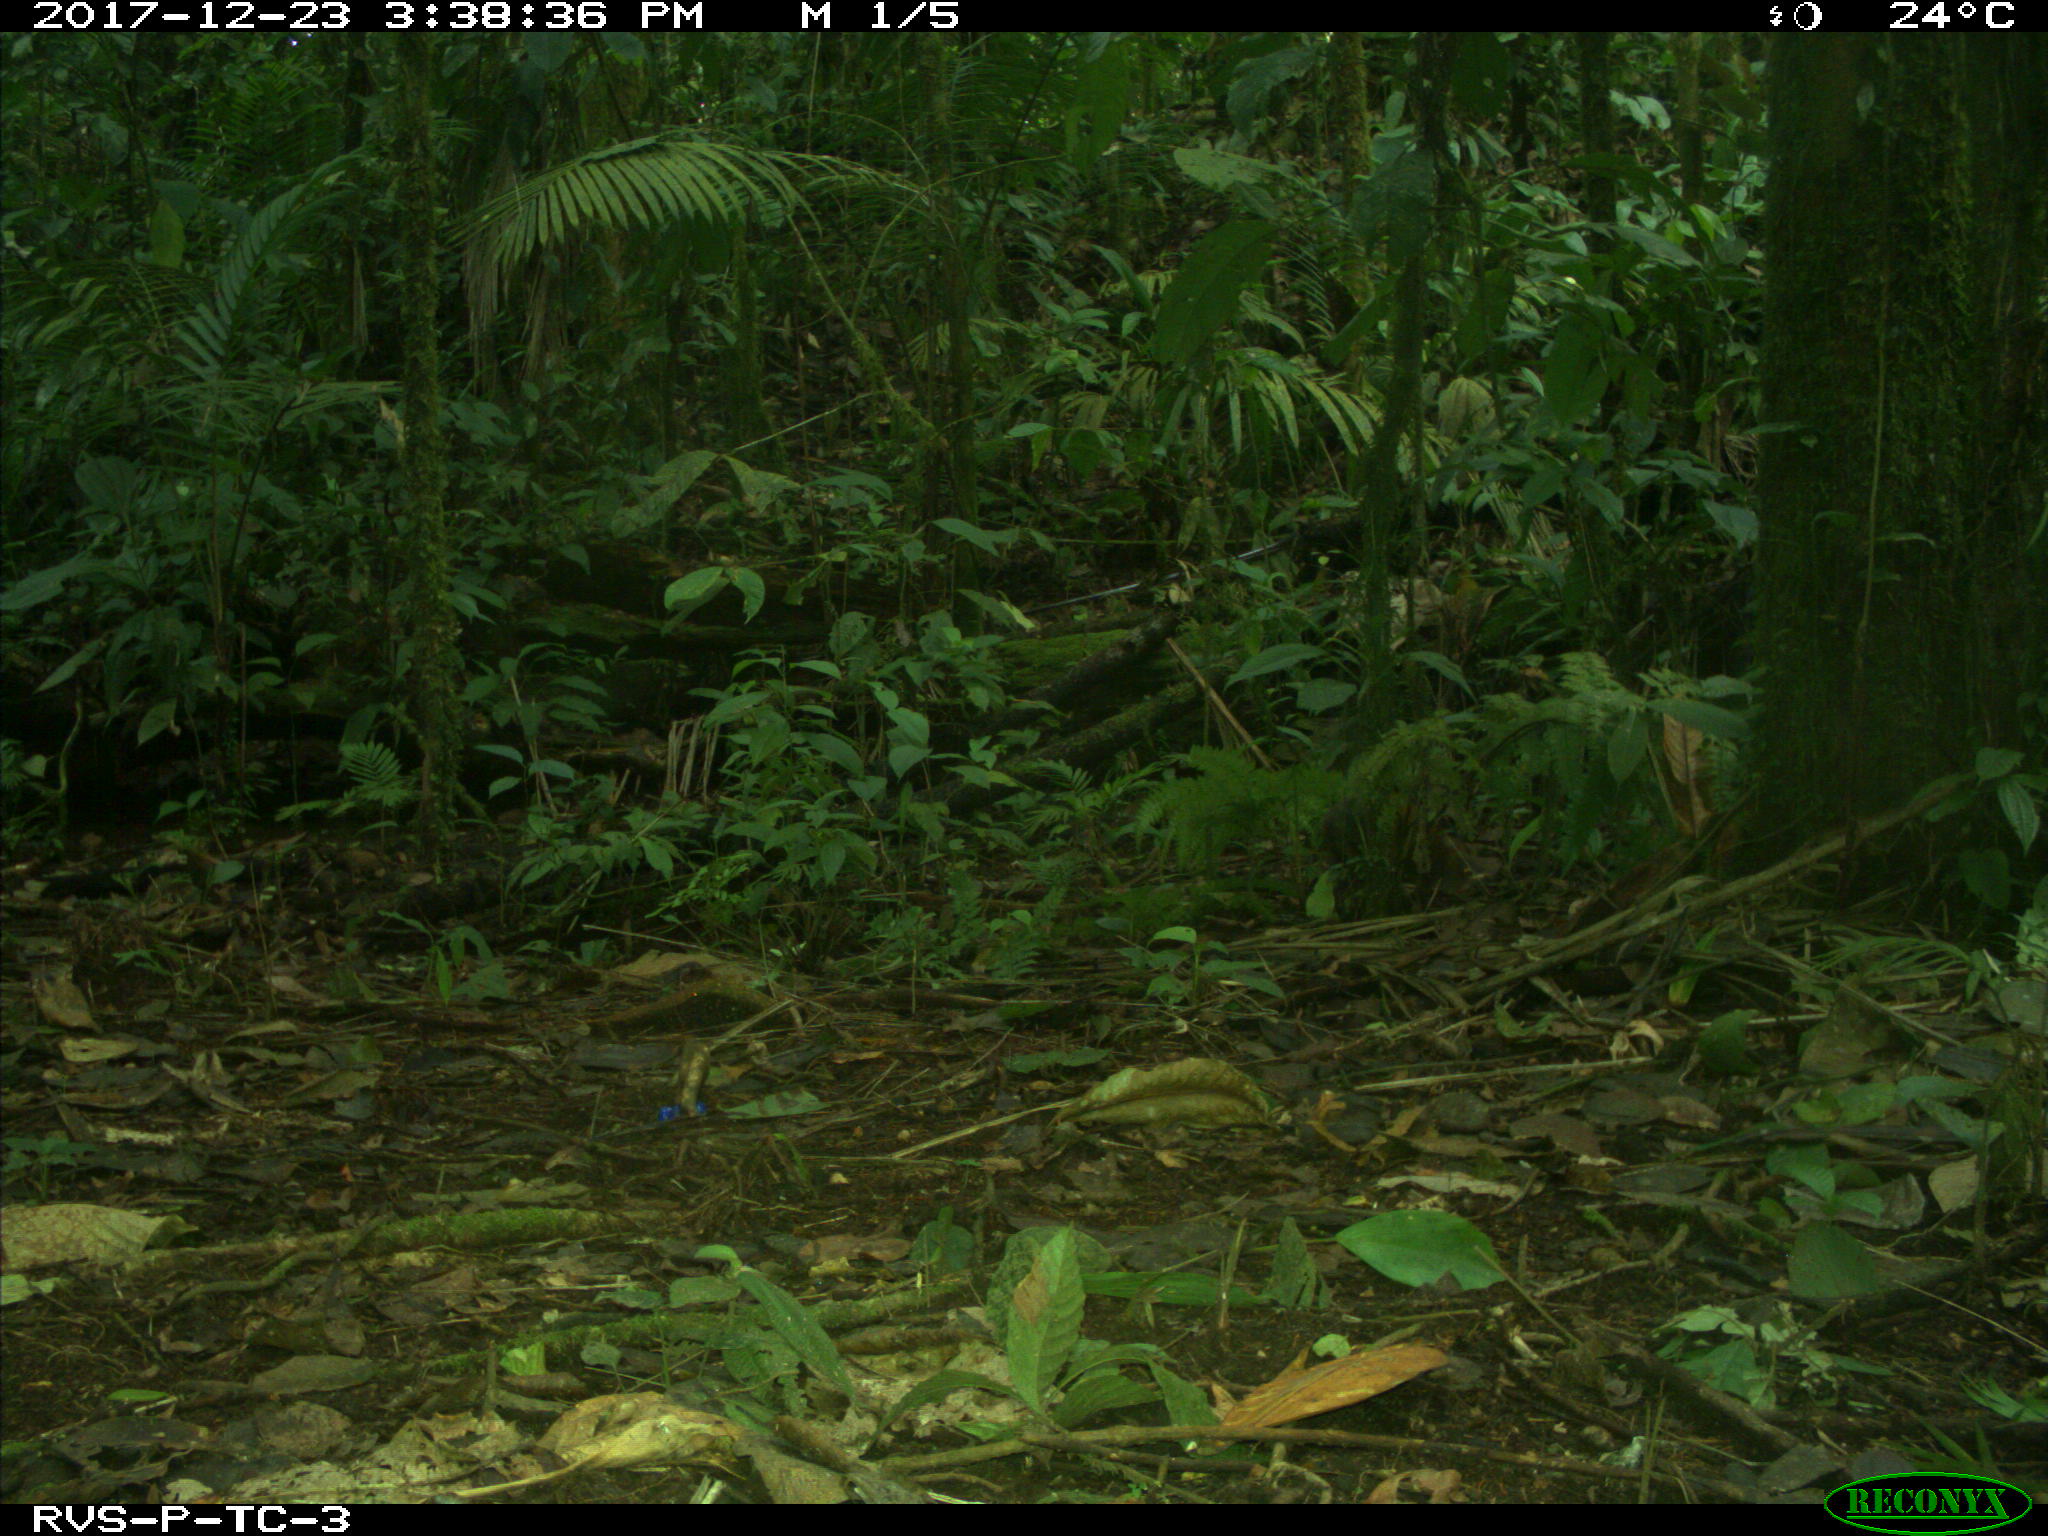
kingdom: Animalia
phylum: Chordata
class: Mammalia
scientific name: Mammalia
